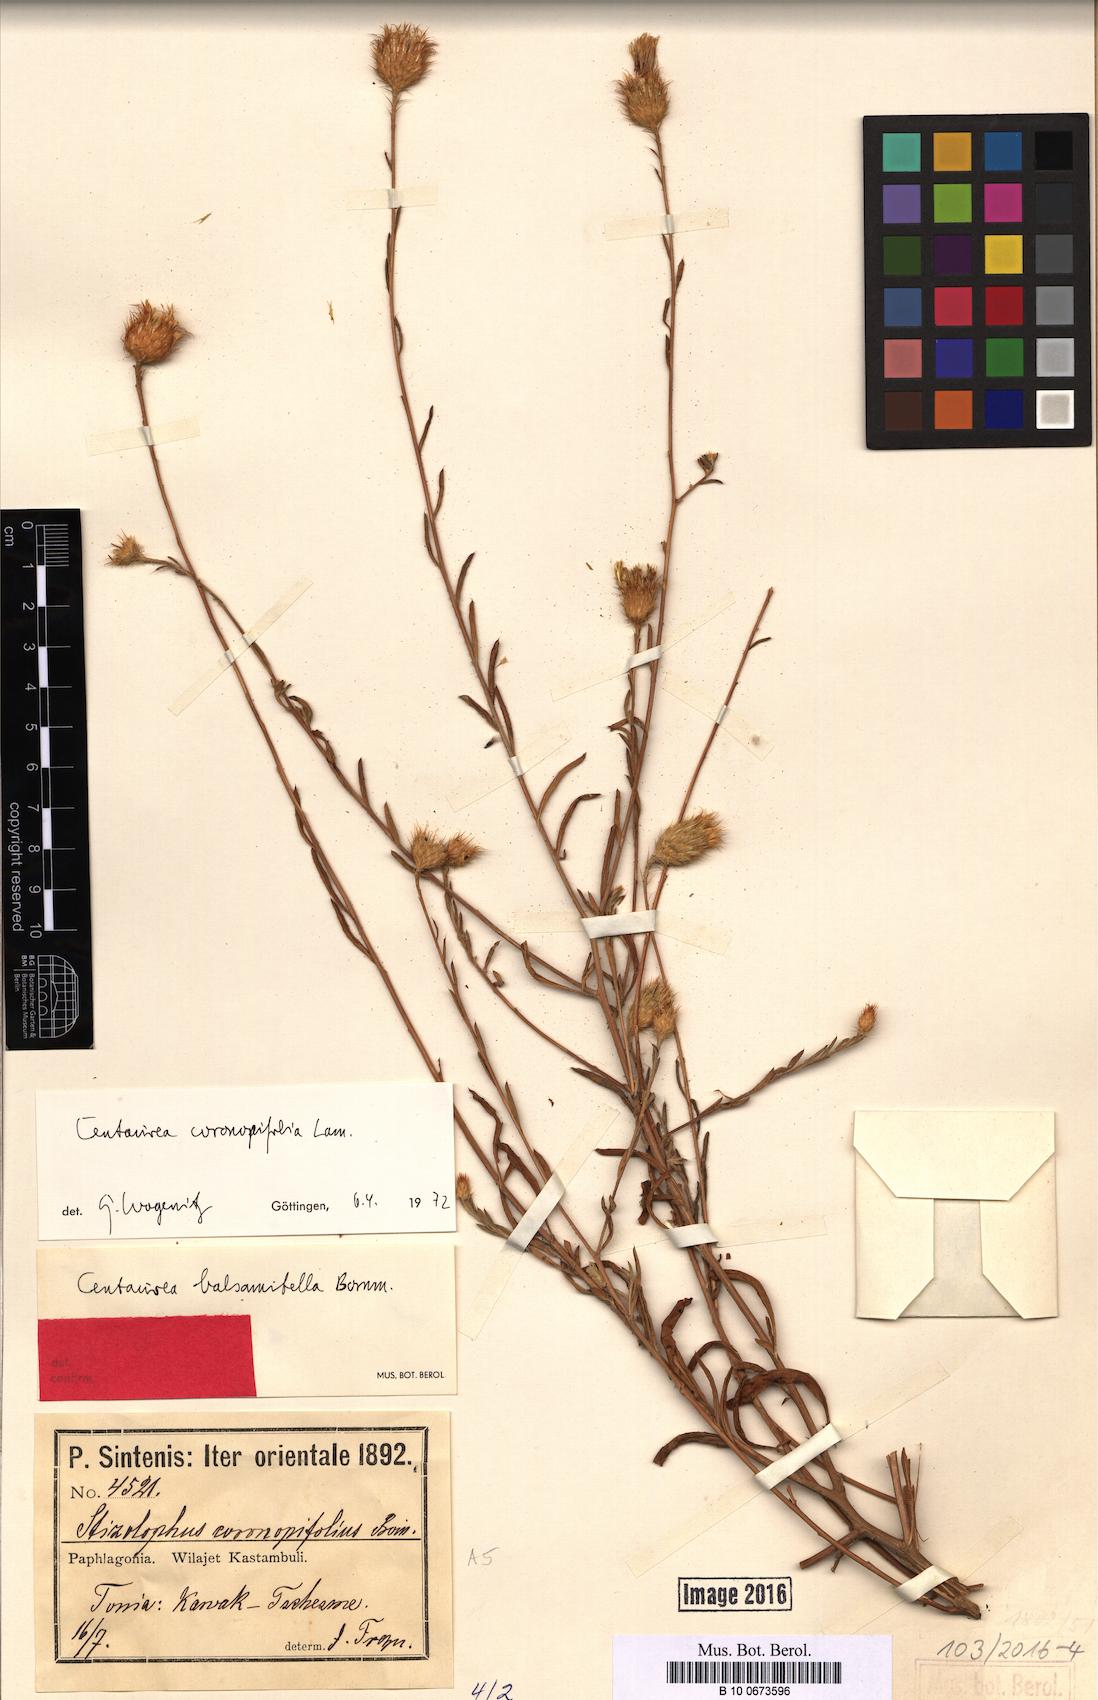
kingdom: Plantae
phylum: Tracheophyta
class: Magnoliopsida
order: Asterales
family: Asteraceae
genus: Stizolophus
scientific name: Stizolophus coronopifolius
